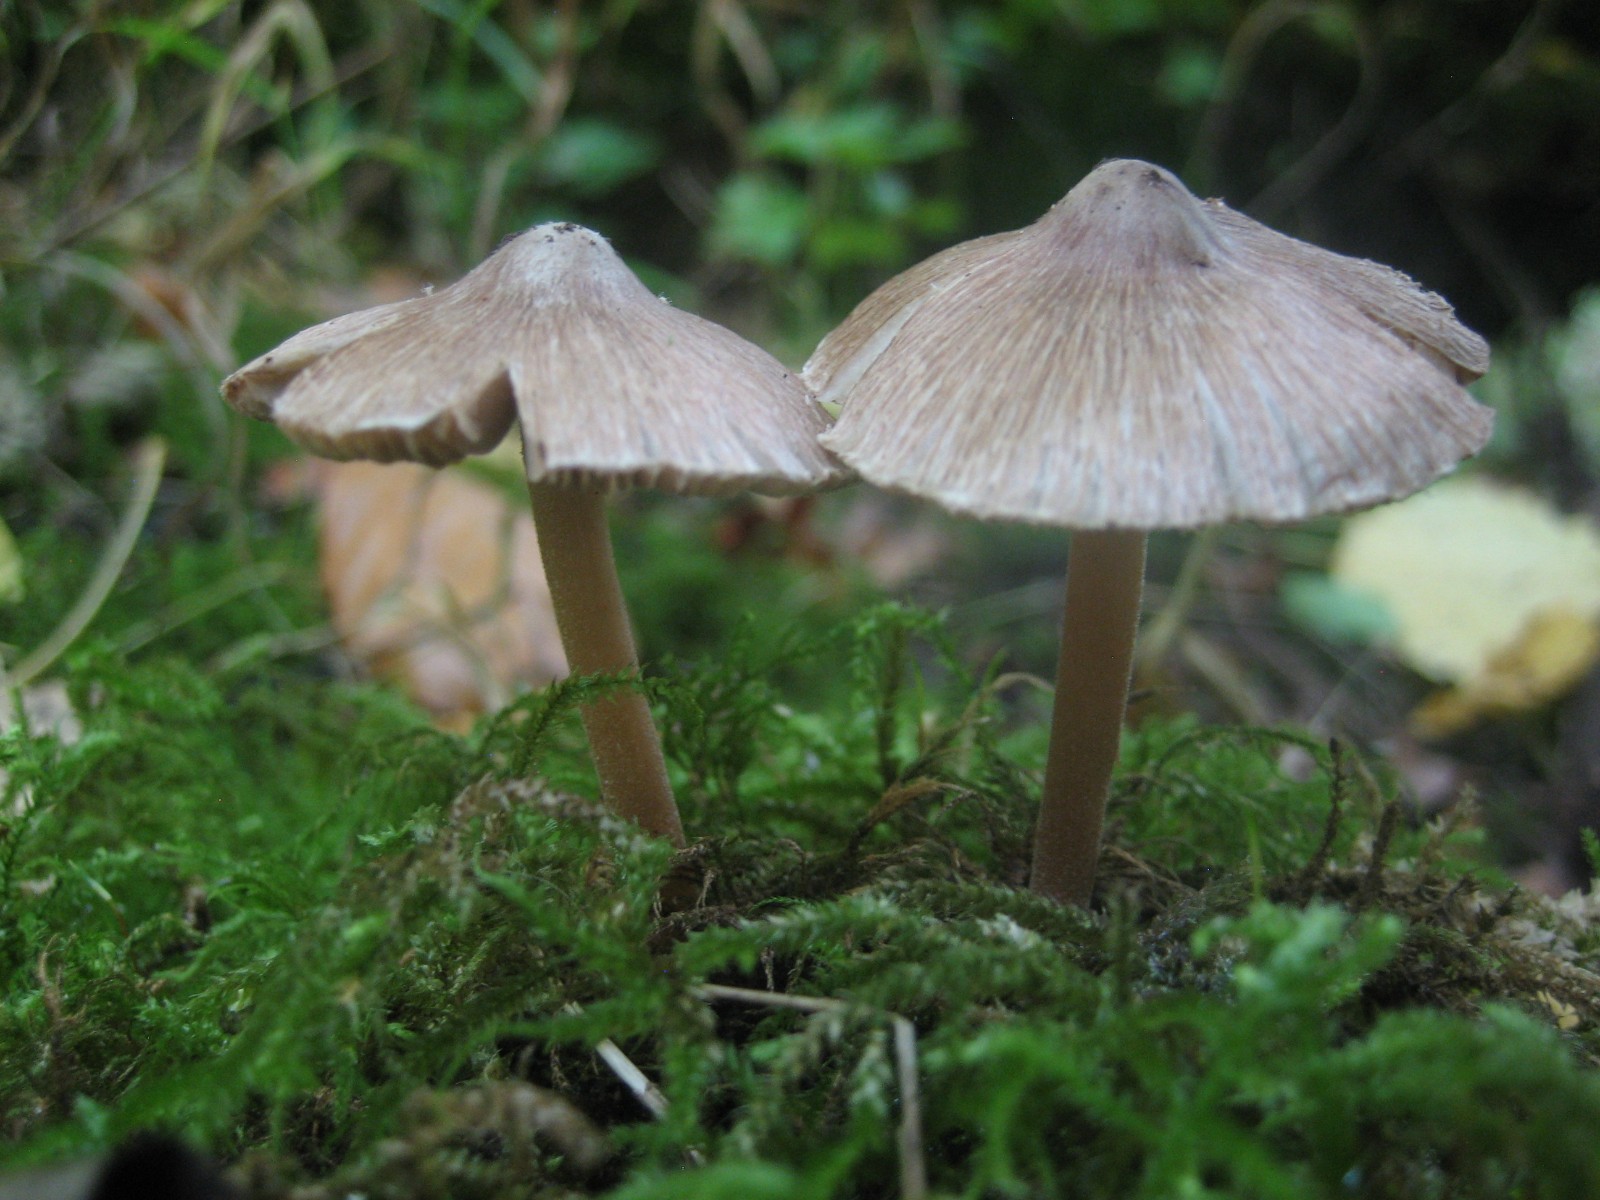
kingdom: Fungi
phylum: Basidiomycota
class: Agaricomycetes
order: Agaricales
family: Inocybaceae
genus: Inocybe
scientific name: Inocybe asterospora
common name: stjernesporet trævlhat
